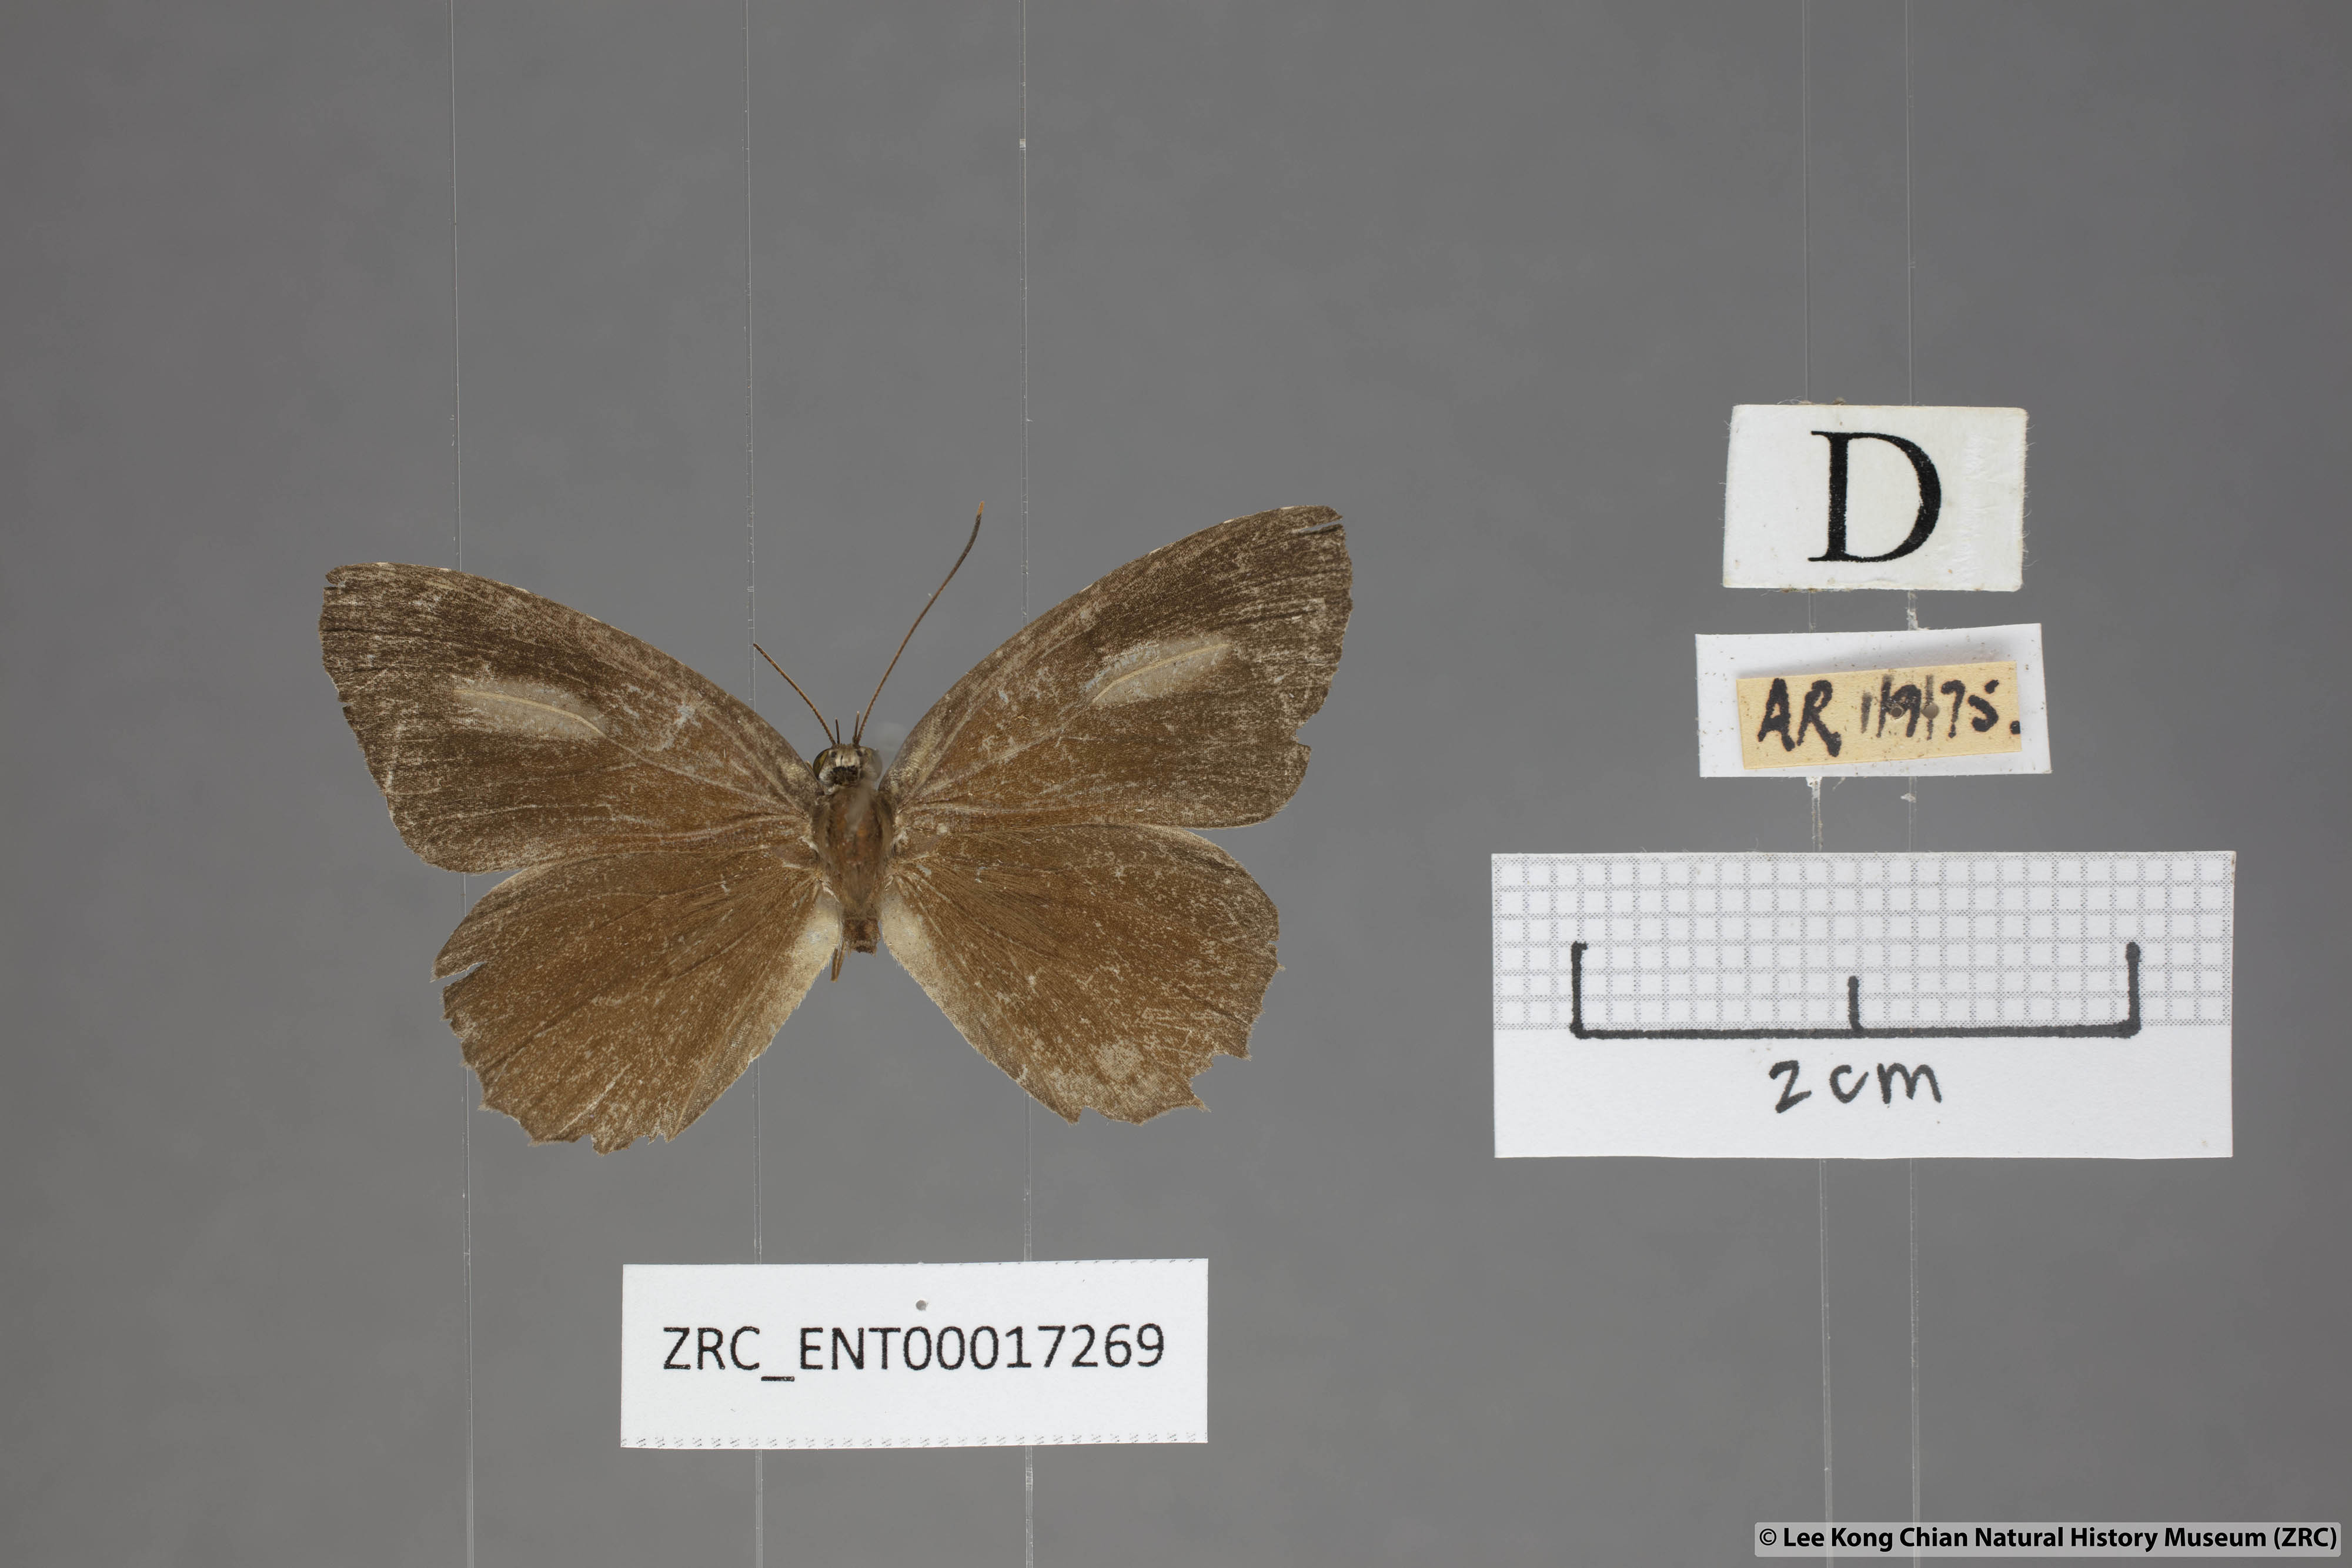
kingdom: Animalia
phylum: Arthropoda
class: Insecta
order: Lepidoptera
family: Lycaenidae
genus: Allotinus
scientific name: Allotinus leogoron
